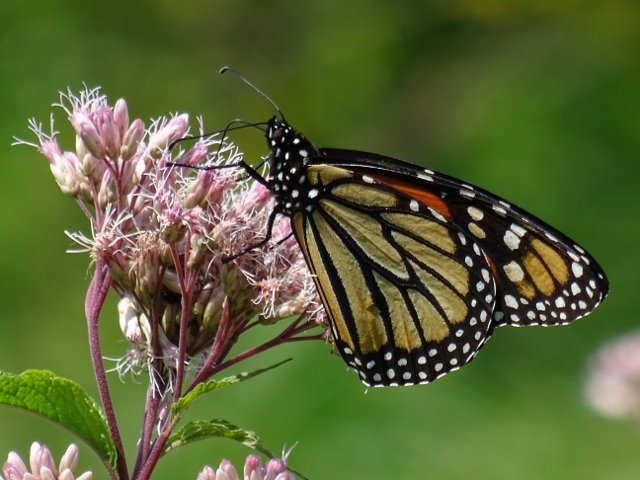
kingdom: Animalia
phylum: Arthropoda
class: Insecta
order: Lepidoptera
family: Nymphalidae
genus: Danaus
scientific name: Danaus plexippus
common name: Monarch
